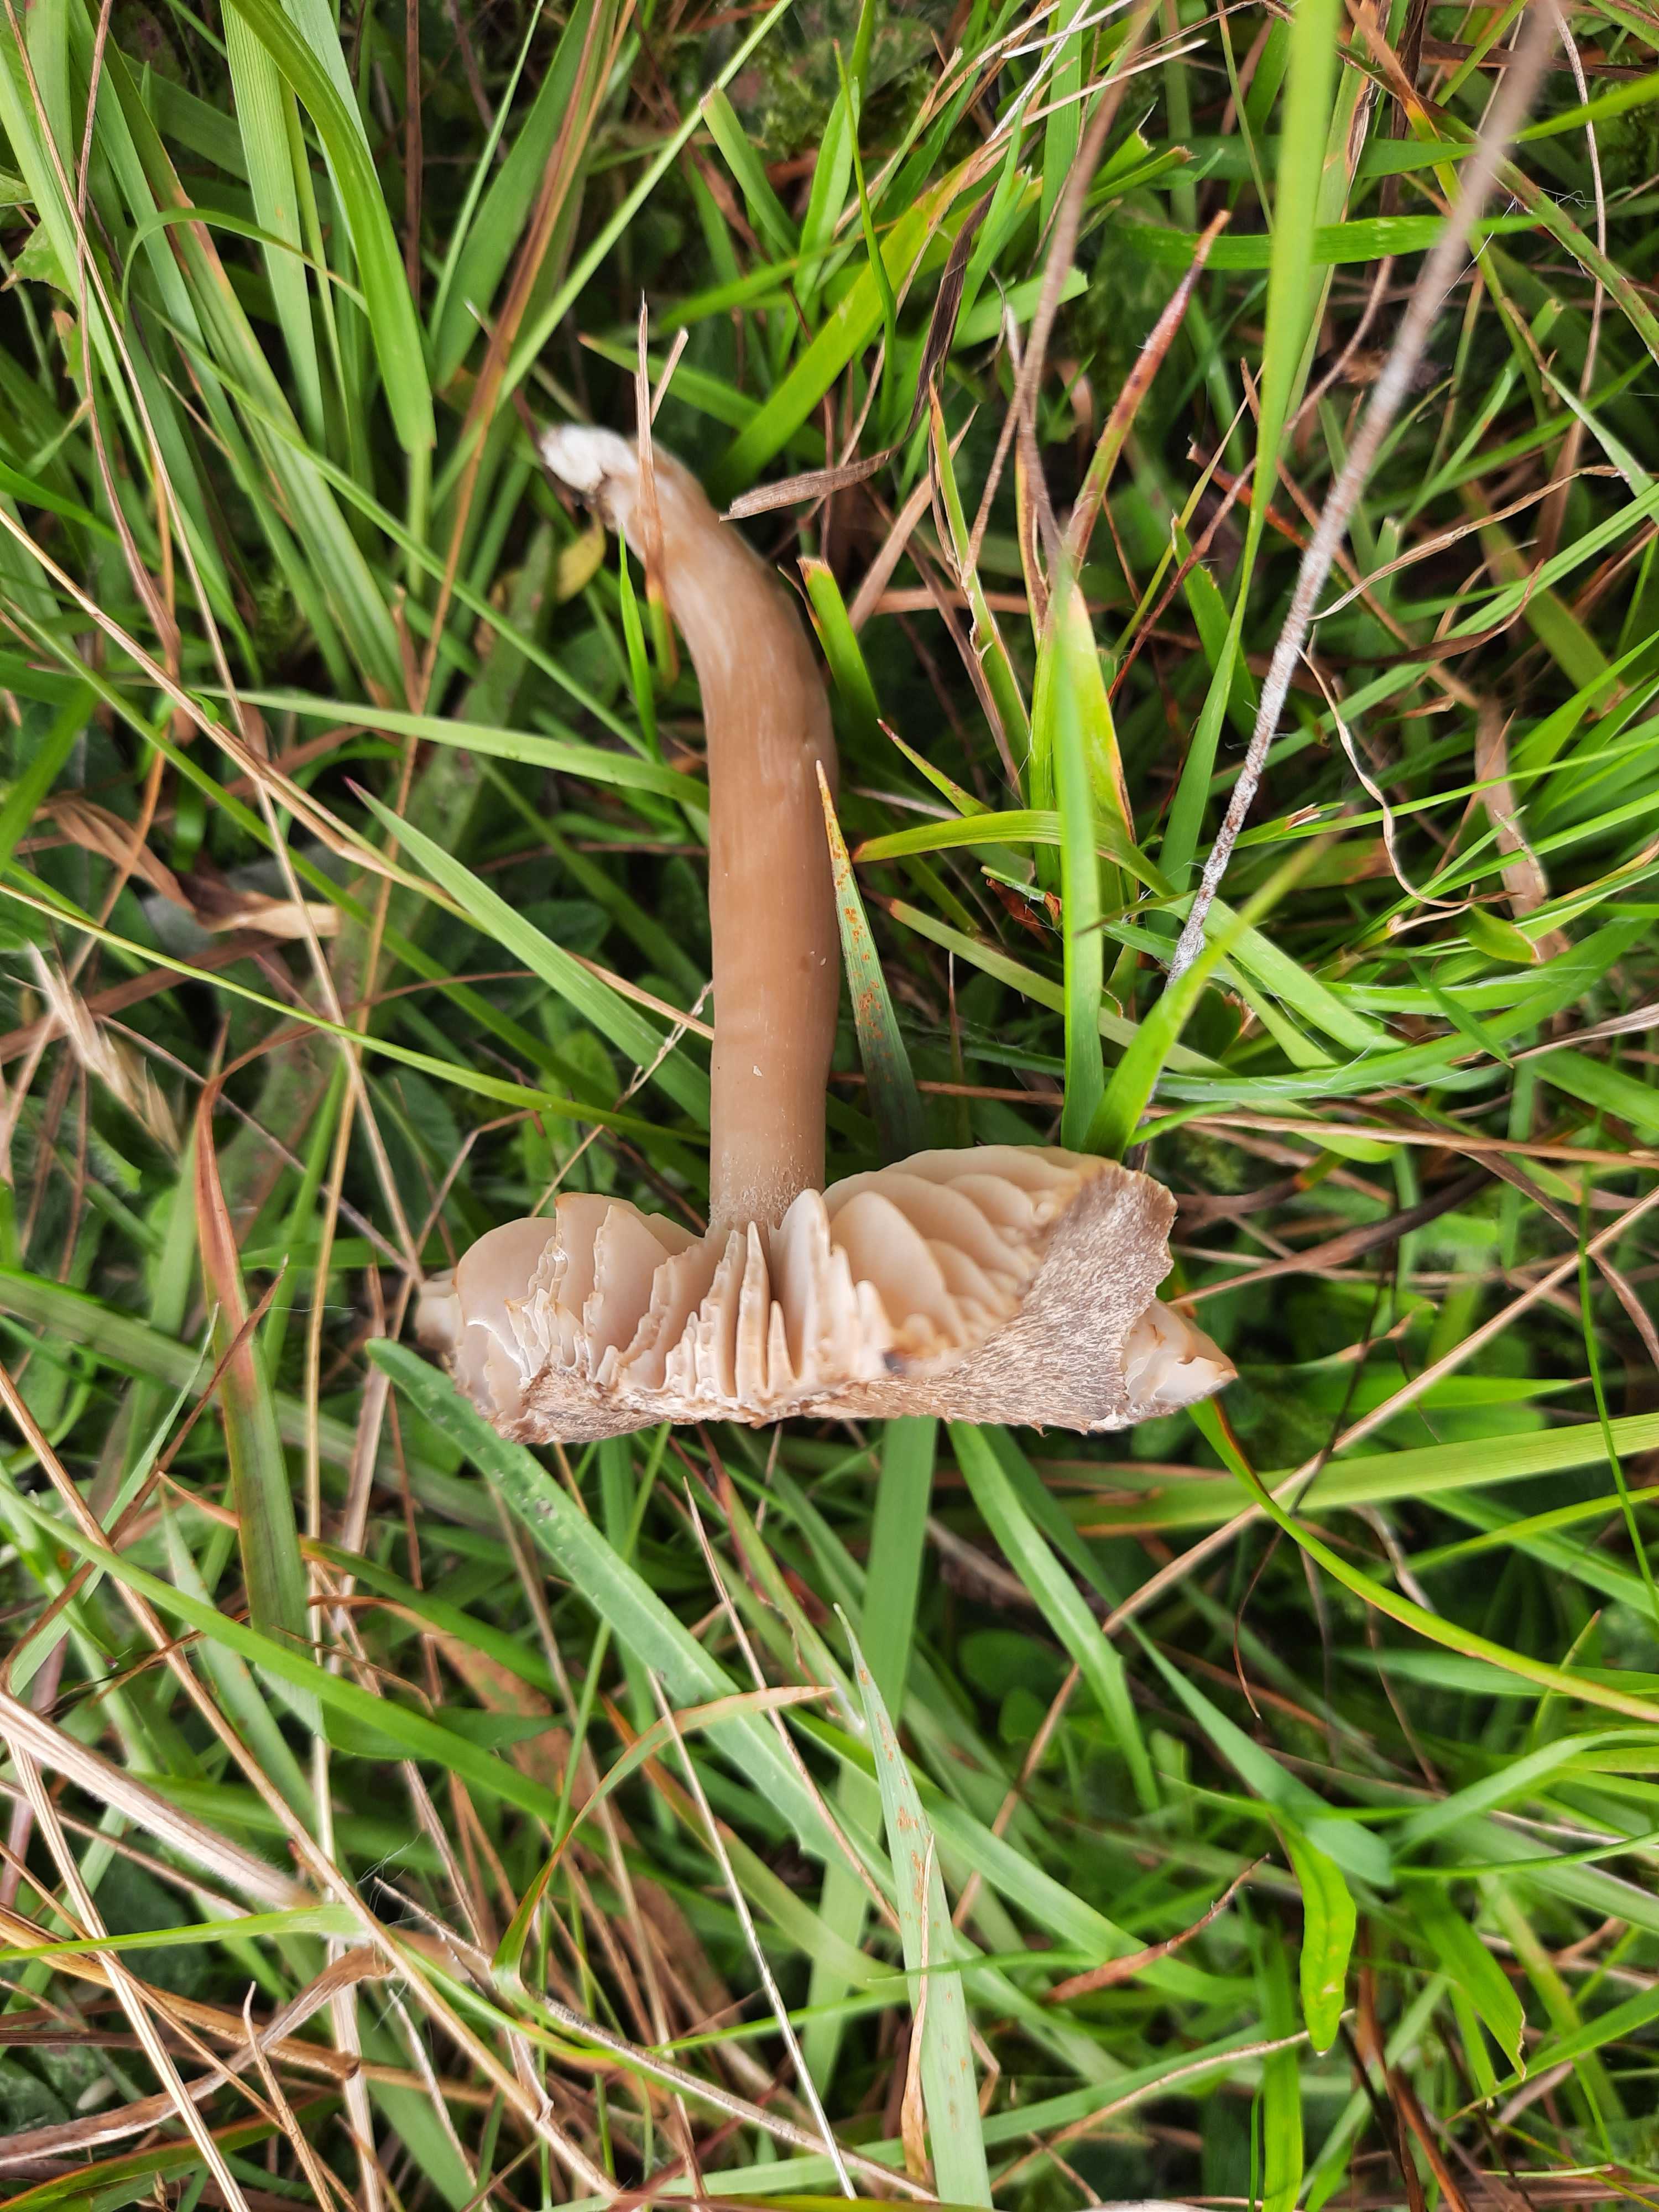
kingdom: Fungi
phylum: Basidiomycota
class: Agaricomycetes
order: Agaricales
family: Hygrophoraceae
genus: Neohygrocybe
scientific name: Neohygrocybe nitrata
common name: stinkende vokshat
